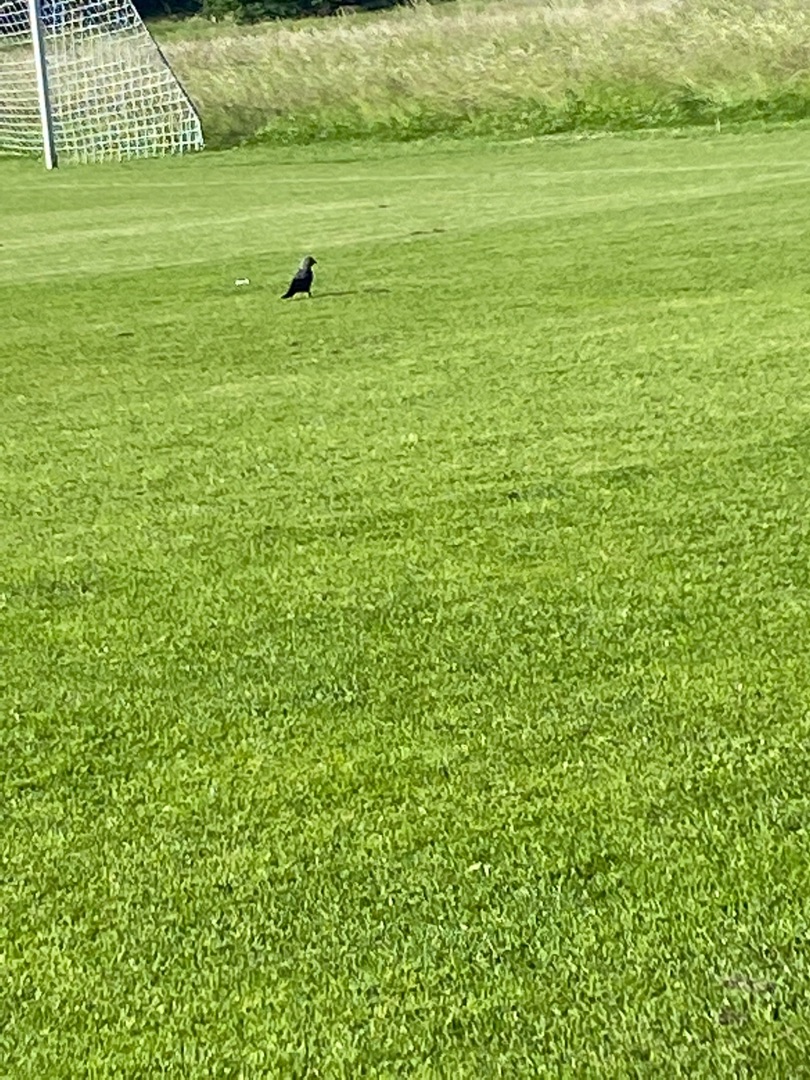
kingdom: Animalia
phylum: Chordata
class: Aves
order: Passeriformes
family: Corvidae
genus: Coloeus
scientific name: Coloeus monedula
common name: Allike
